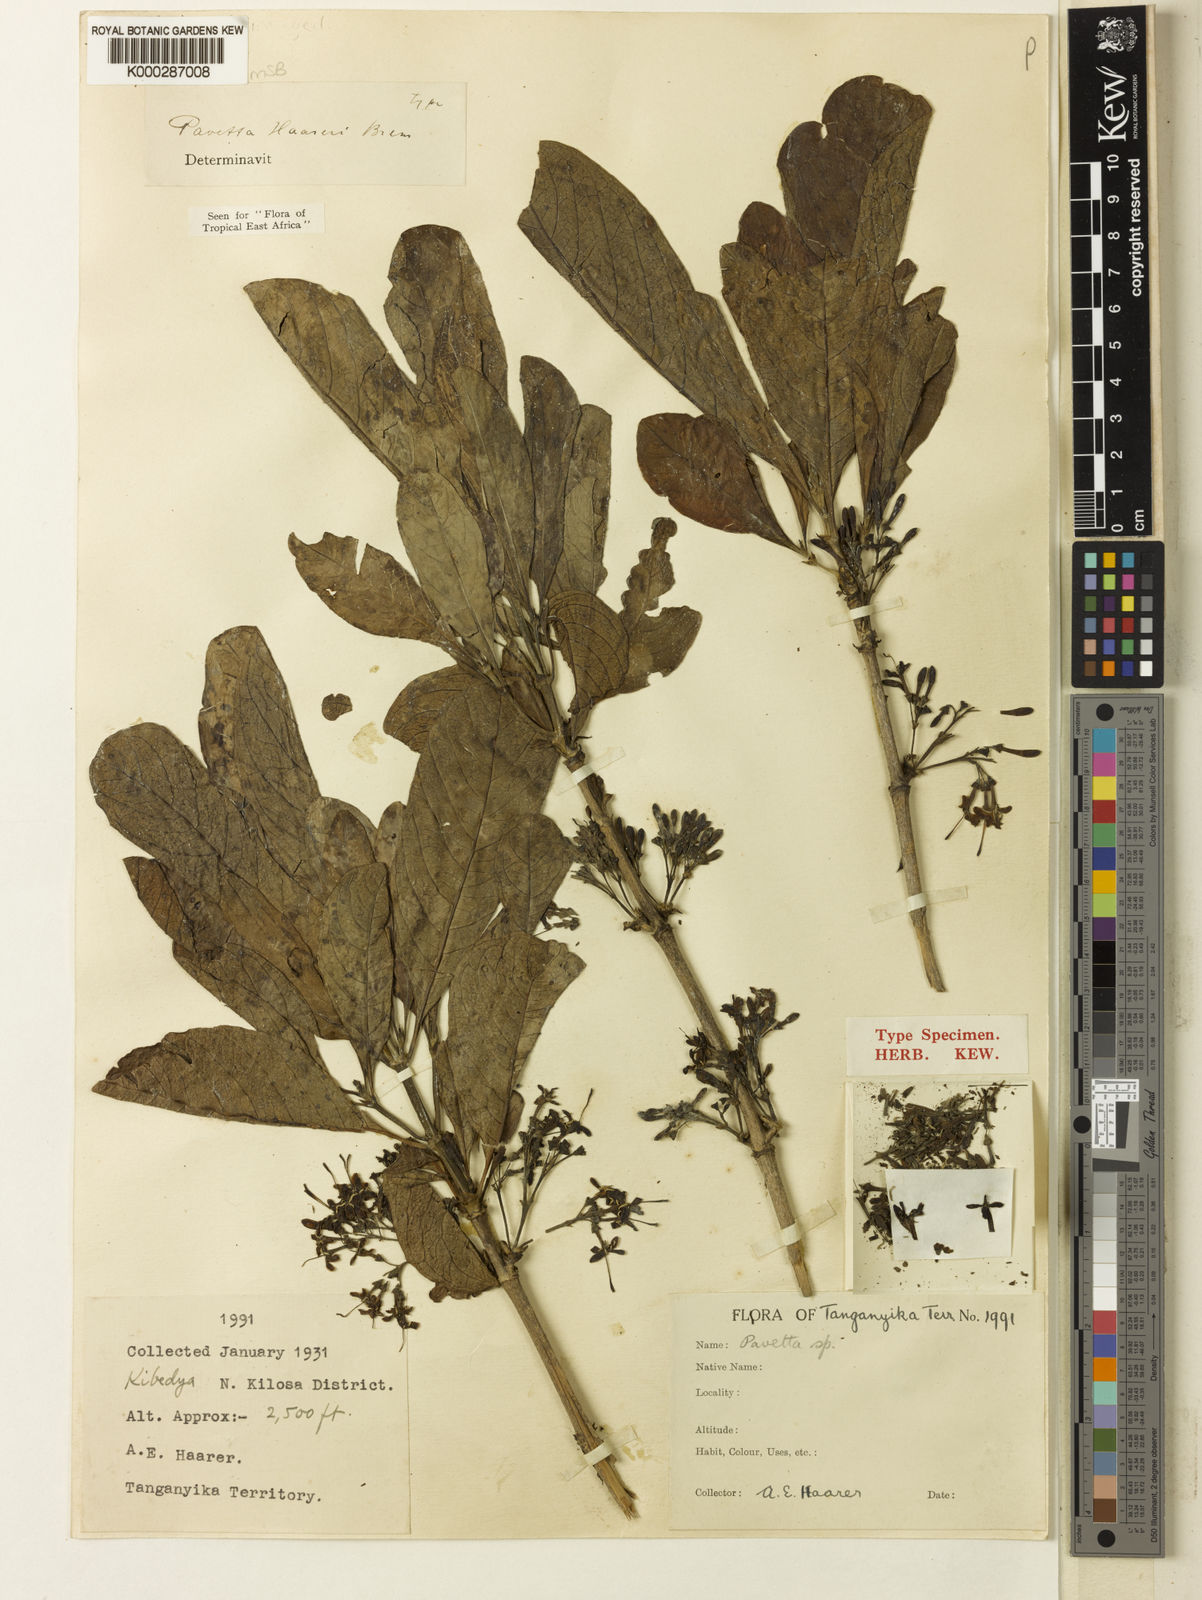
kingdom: Plantae
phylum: Tracheophyta
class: Magnoliopsida
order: Gentianales
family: Rubiaceae
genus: Pavetta
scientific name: Pavetta haareri
